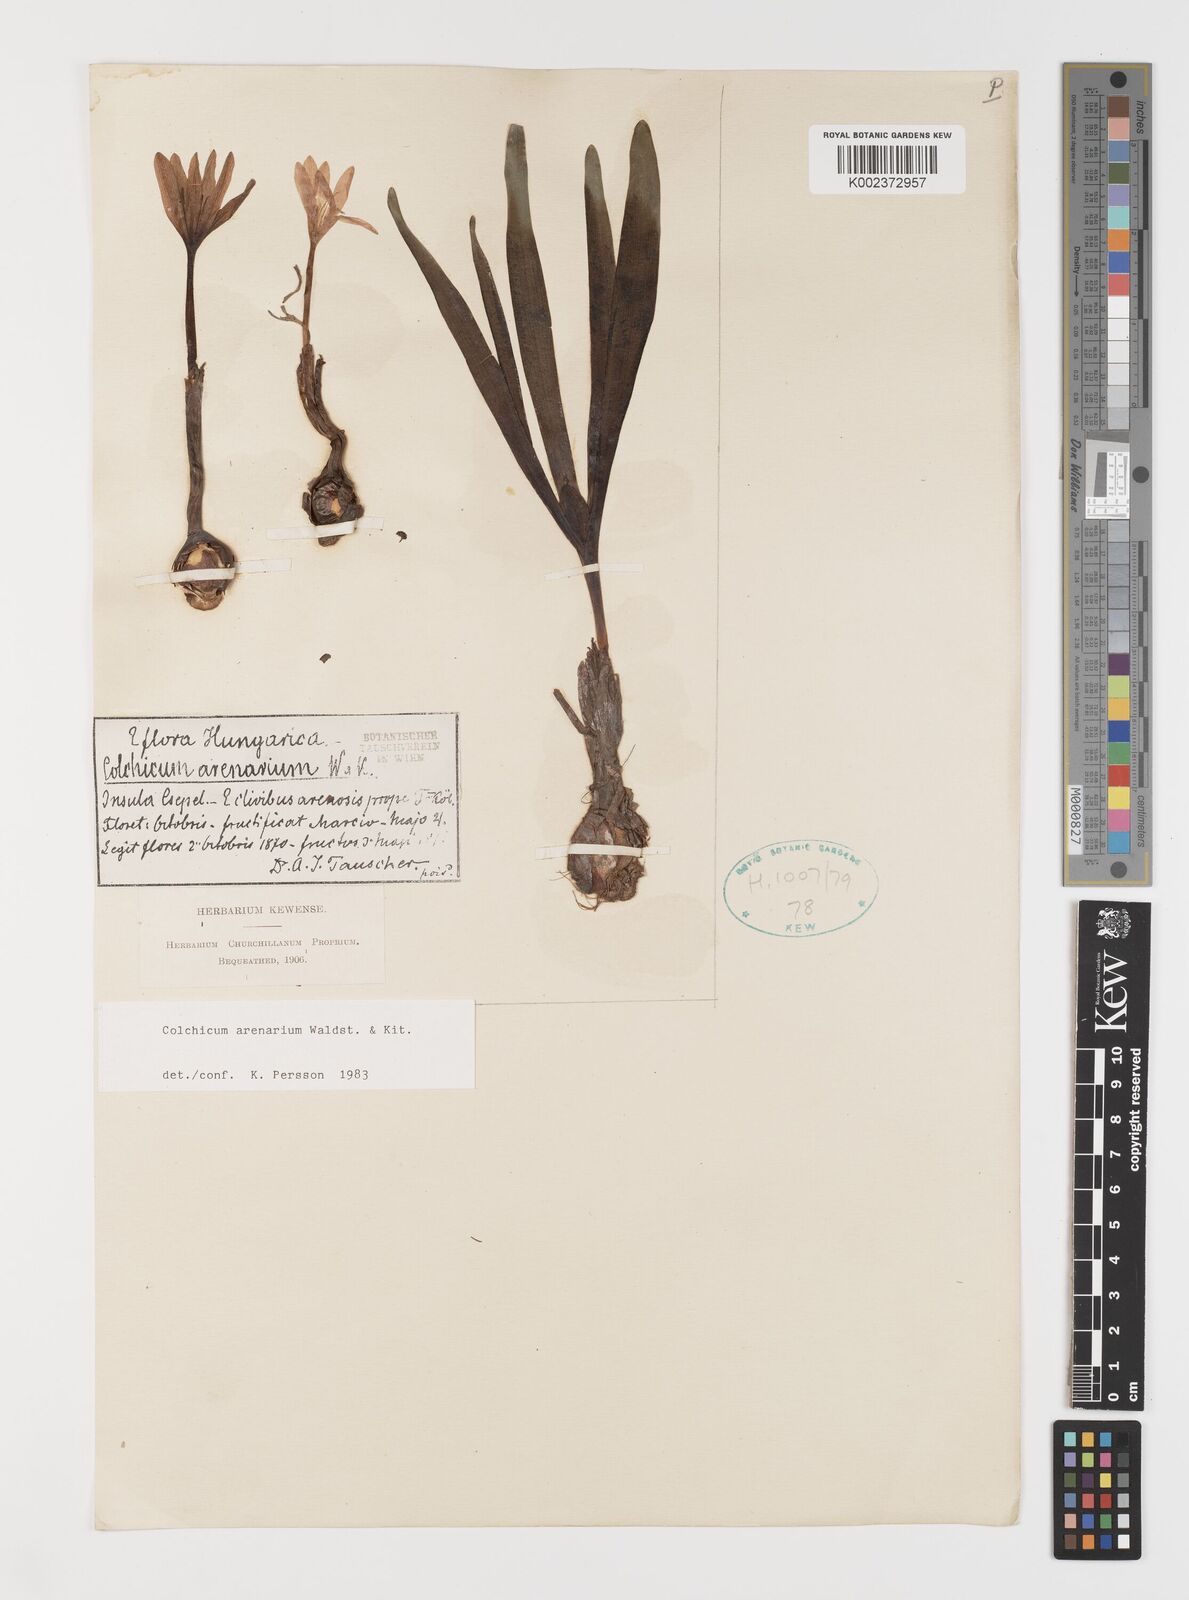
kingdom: Plantae
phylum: Tracheophyta
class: Liliopsida
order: Liliales
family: Colchicaceae
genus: Colchicum
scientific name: Colchicum arenarium
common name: Sand saffron
